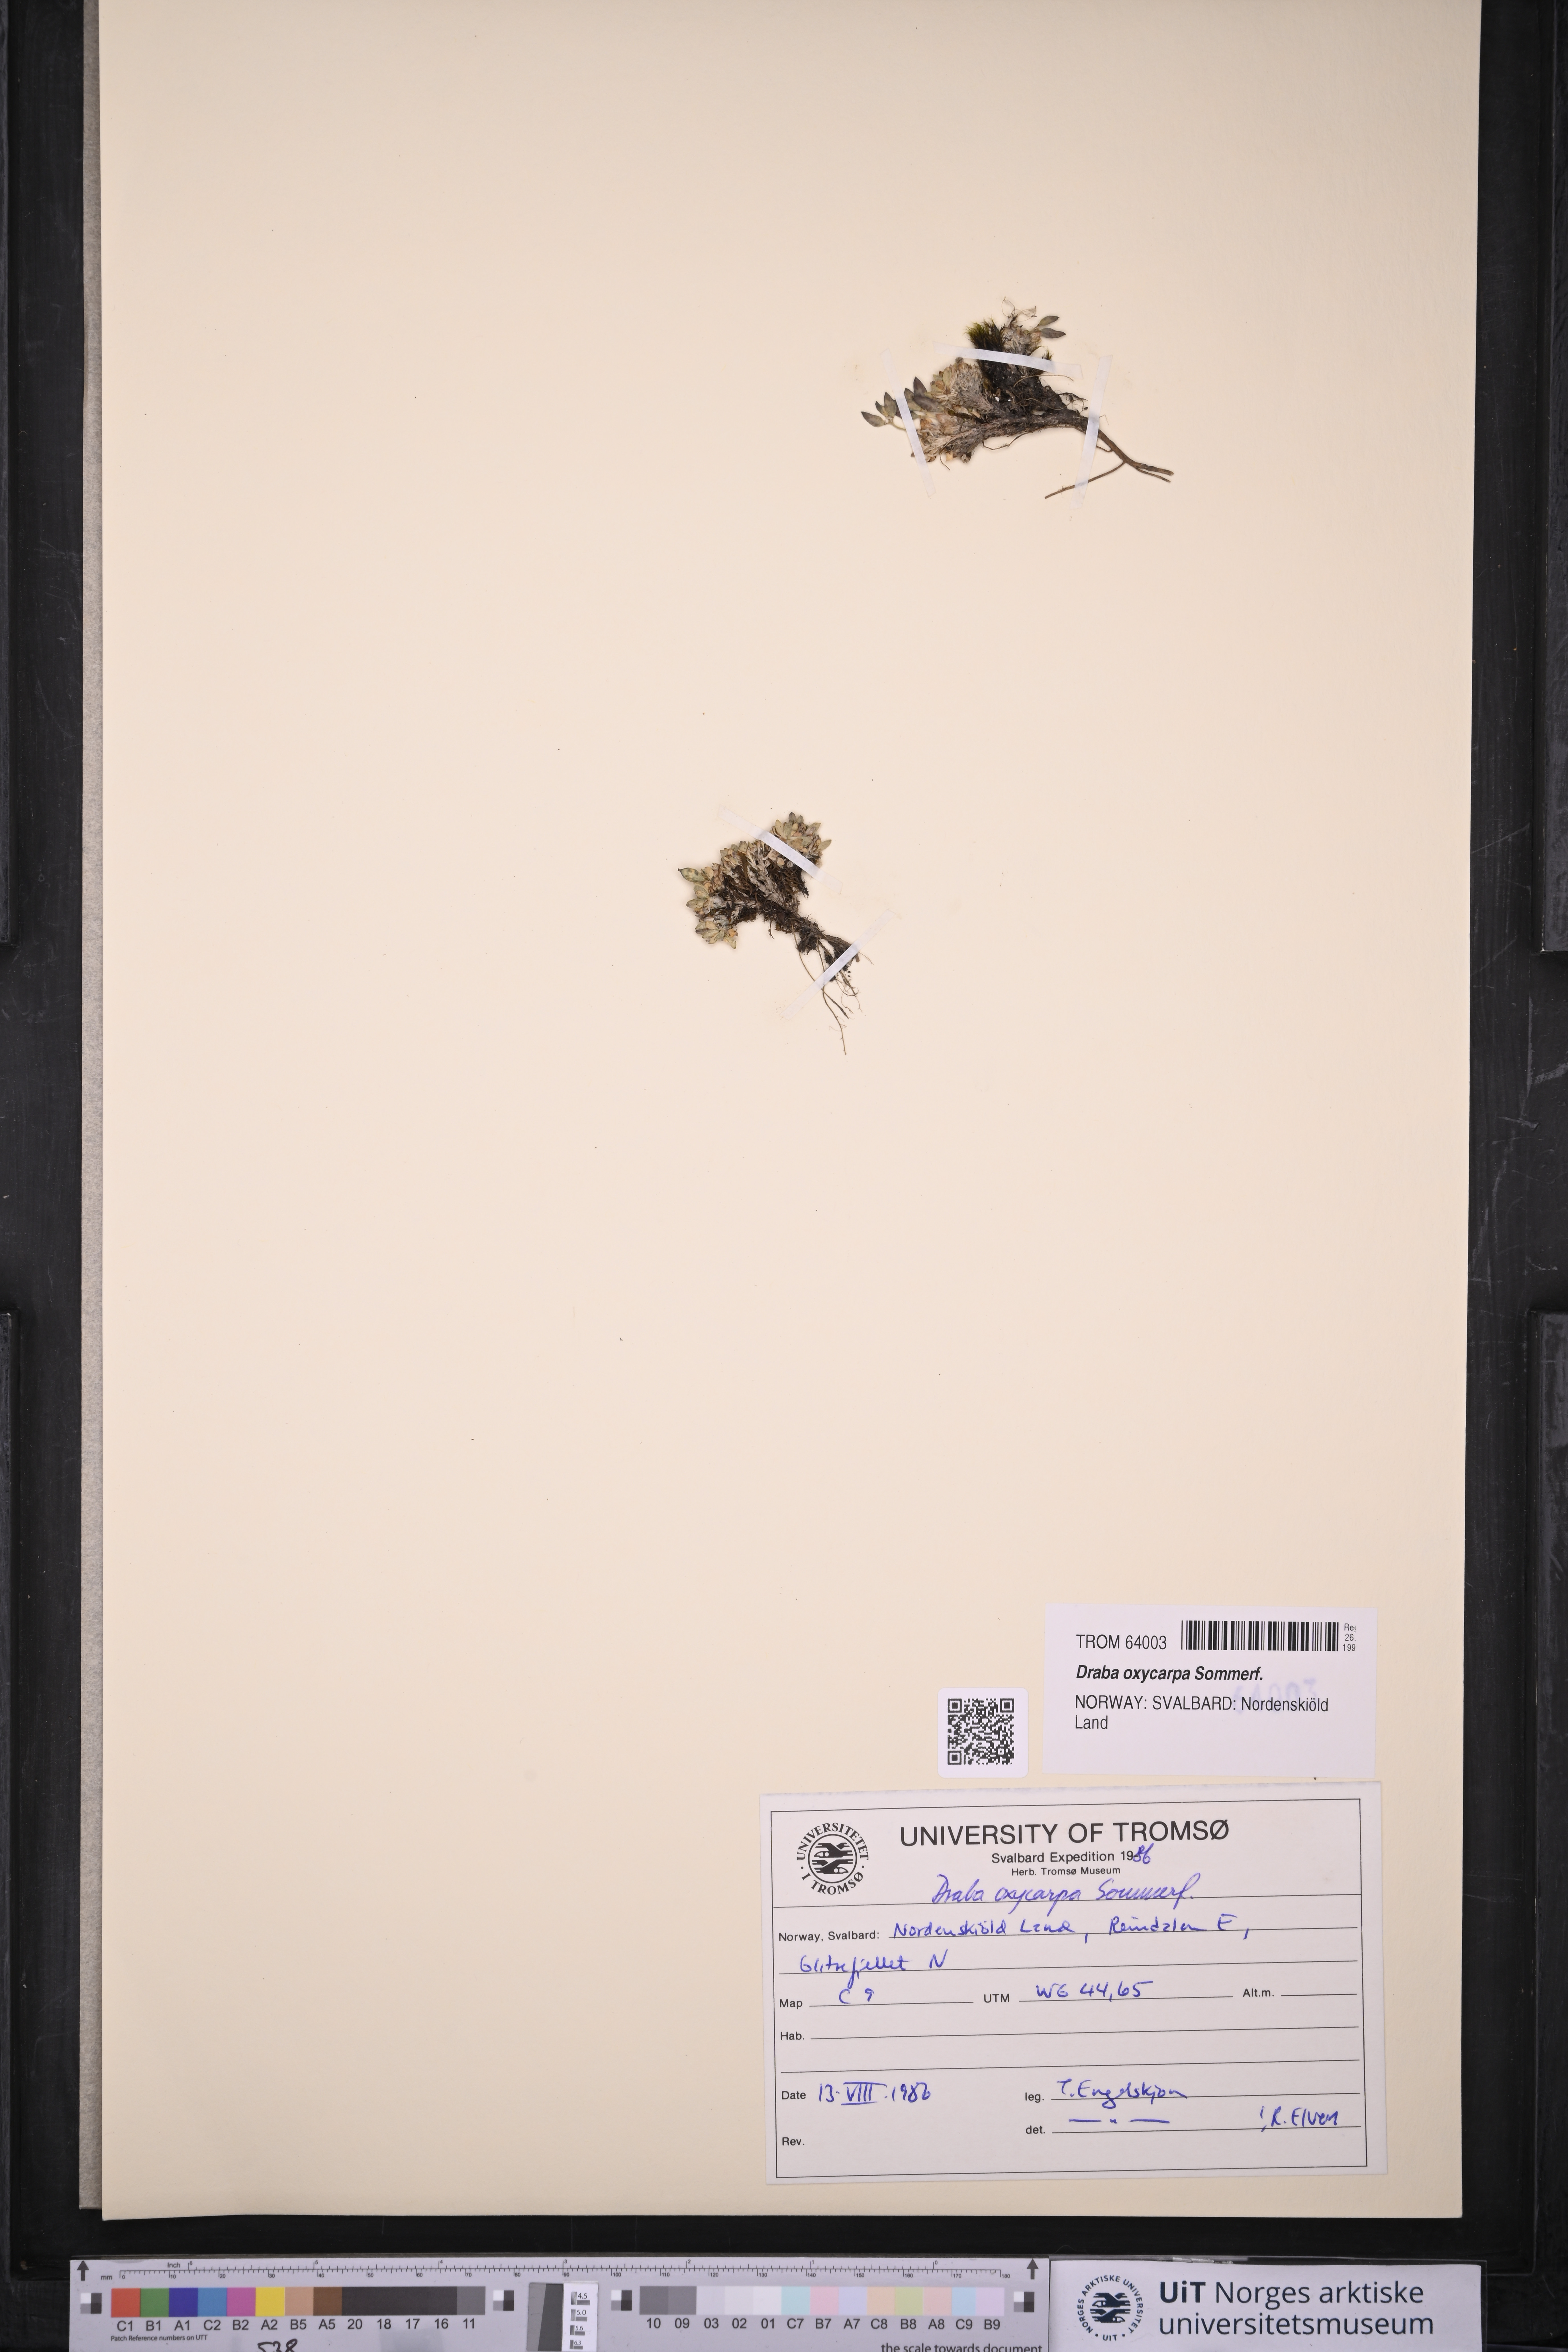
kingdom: Plantae
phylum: Tracheophyta
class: Magnoliopsida
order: Brassicales
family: Brassicaceae
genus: Draba
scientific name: Draba oxycarpa
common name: Sharp-fruited whitlow-grass
